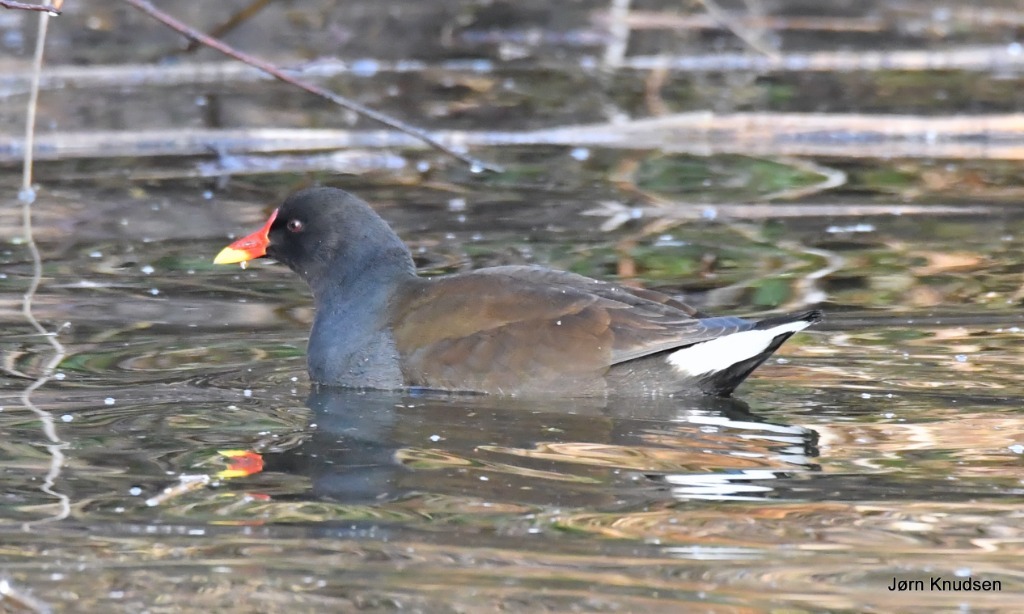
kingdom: Animalia
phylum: Chordata
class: Aves
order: Gruiformes
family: Rallidae
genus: Gallinula
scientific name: Gallinula chloropus
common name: Grønbenet rørhøne
